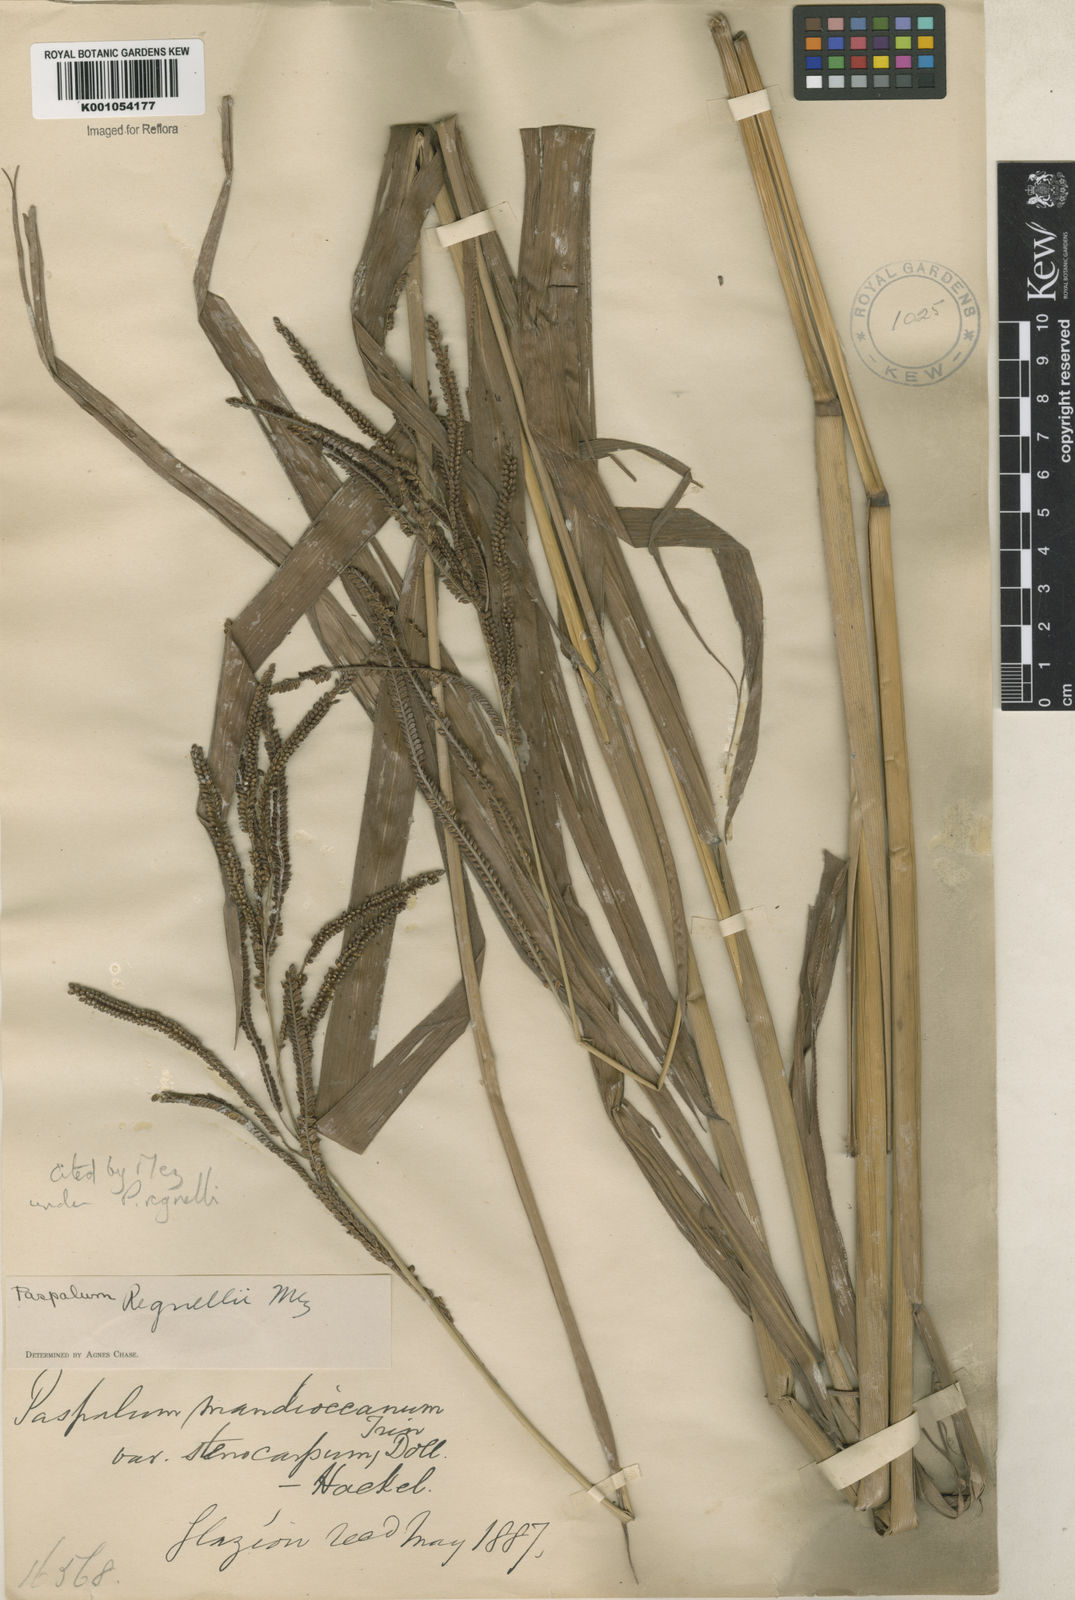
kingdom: Plantae
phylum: Tracheophyta
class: Liliopsida
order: Poales
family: Poaceae
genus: Paspalum
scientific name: Paspalum regnellii
